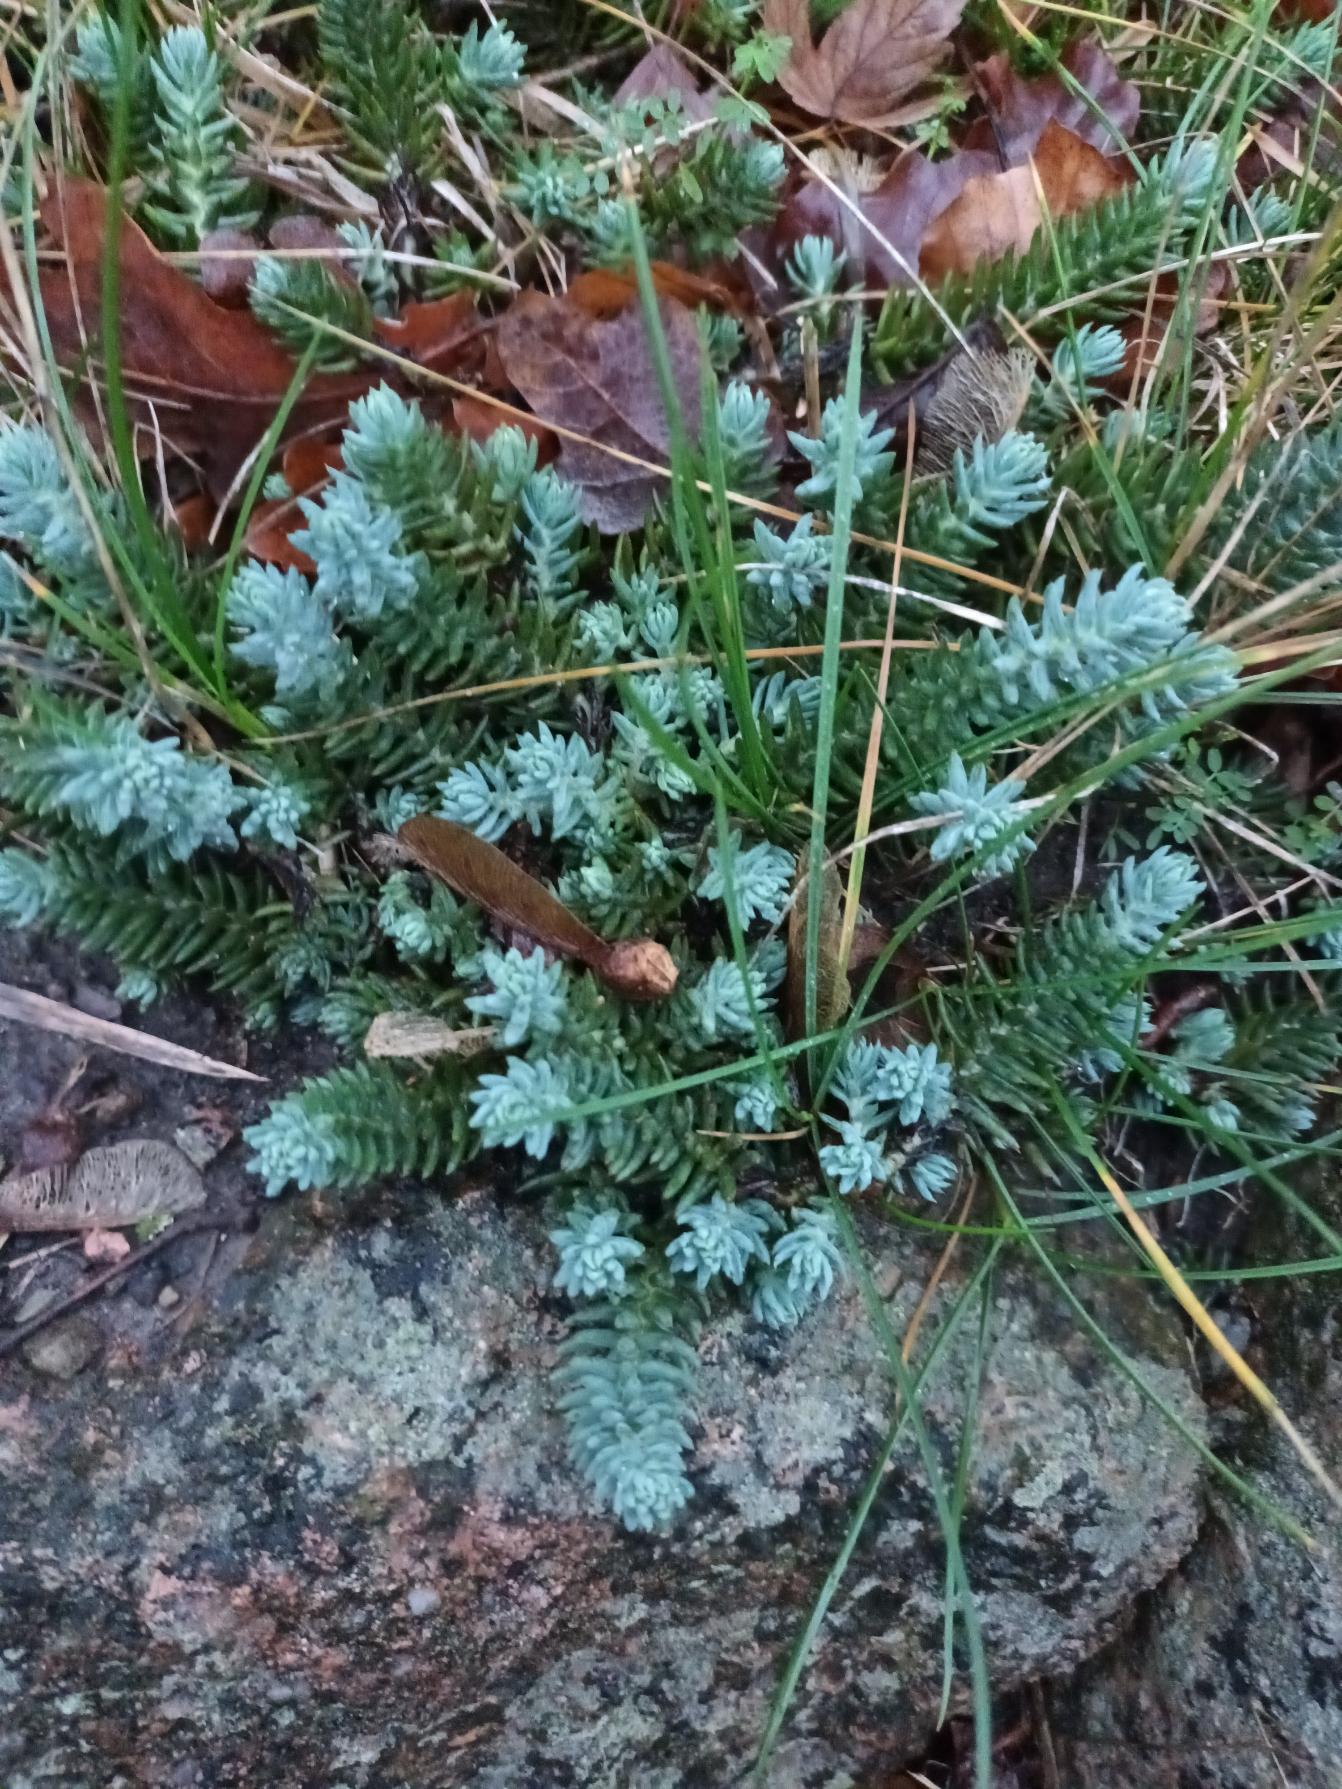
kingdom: Plantae
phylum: Tracheophyta
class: Magnoliopsida
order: Saxifragales
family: Crassulaceae
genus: Petrosedum
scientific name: Petrosedum rupestre
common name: Bjerg-stenurt
